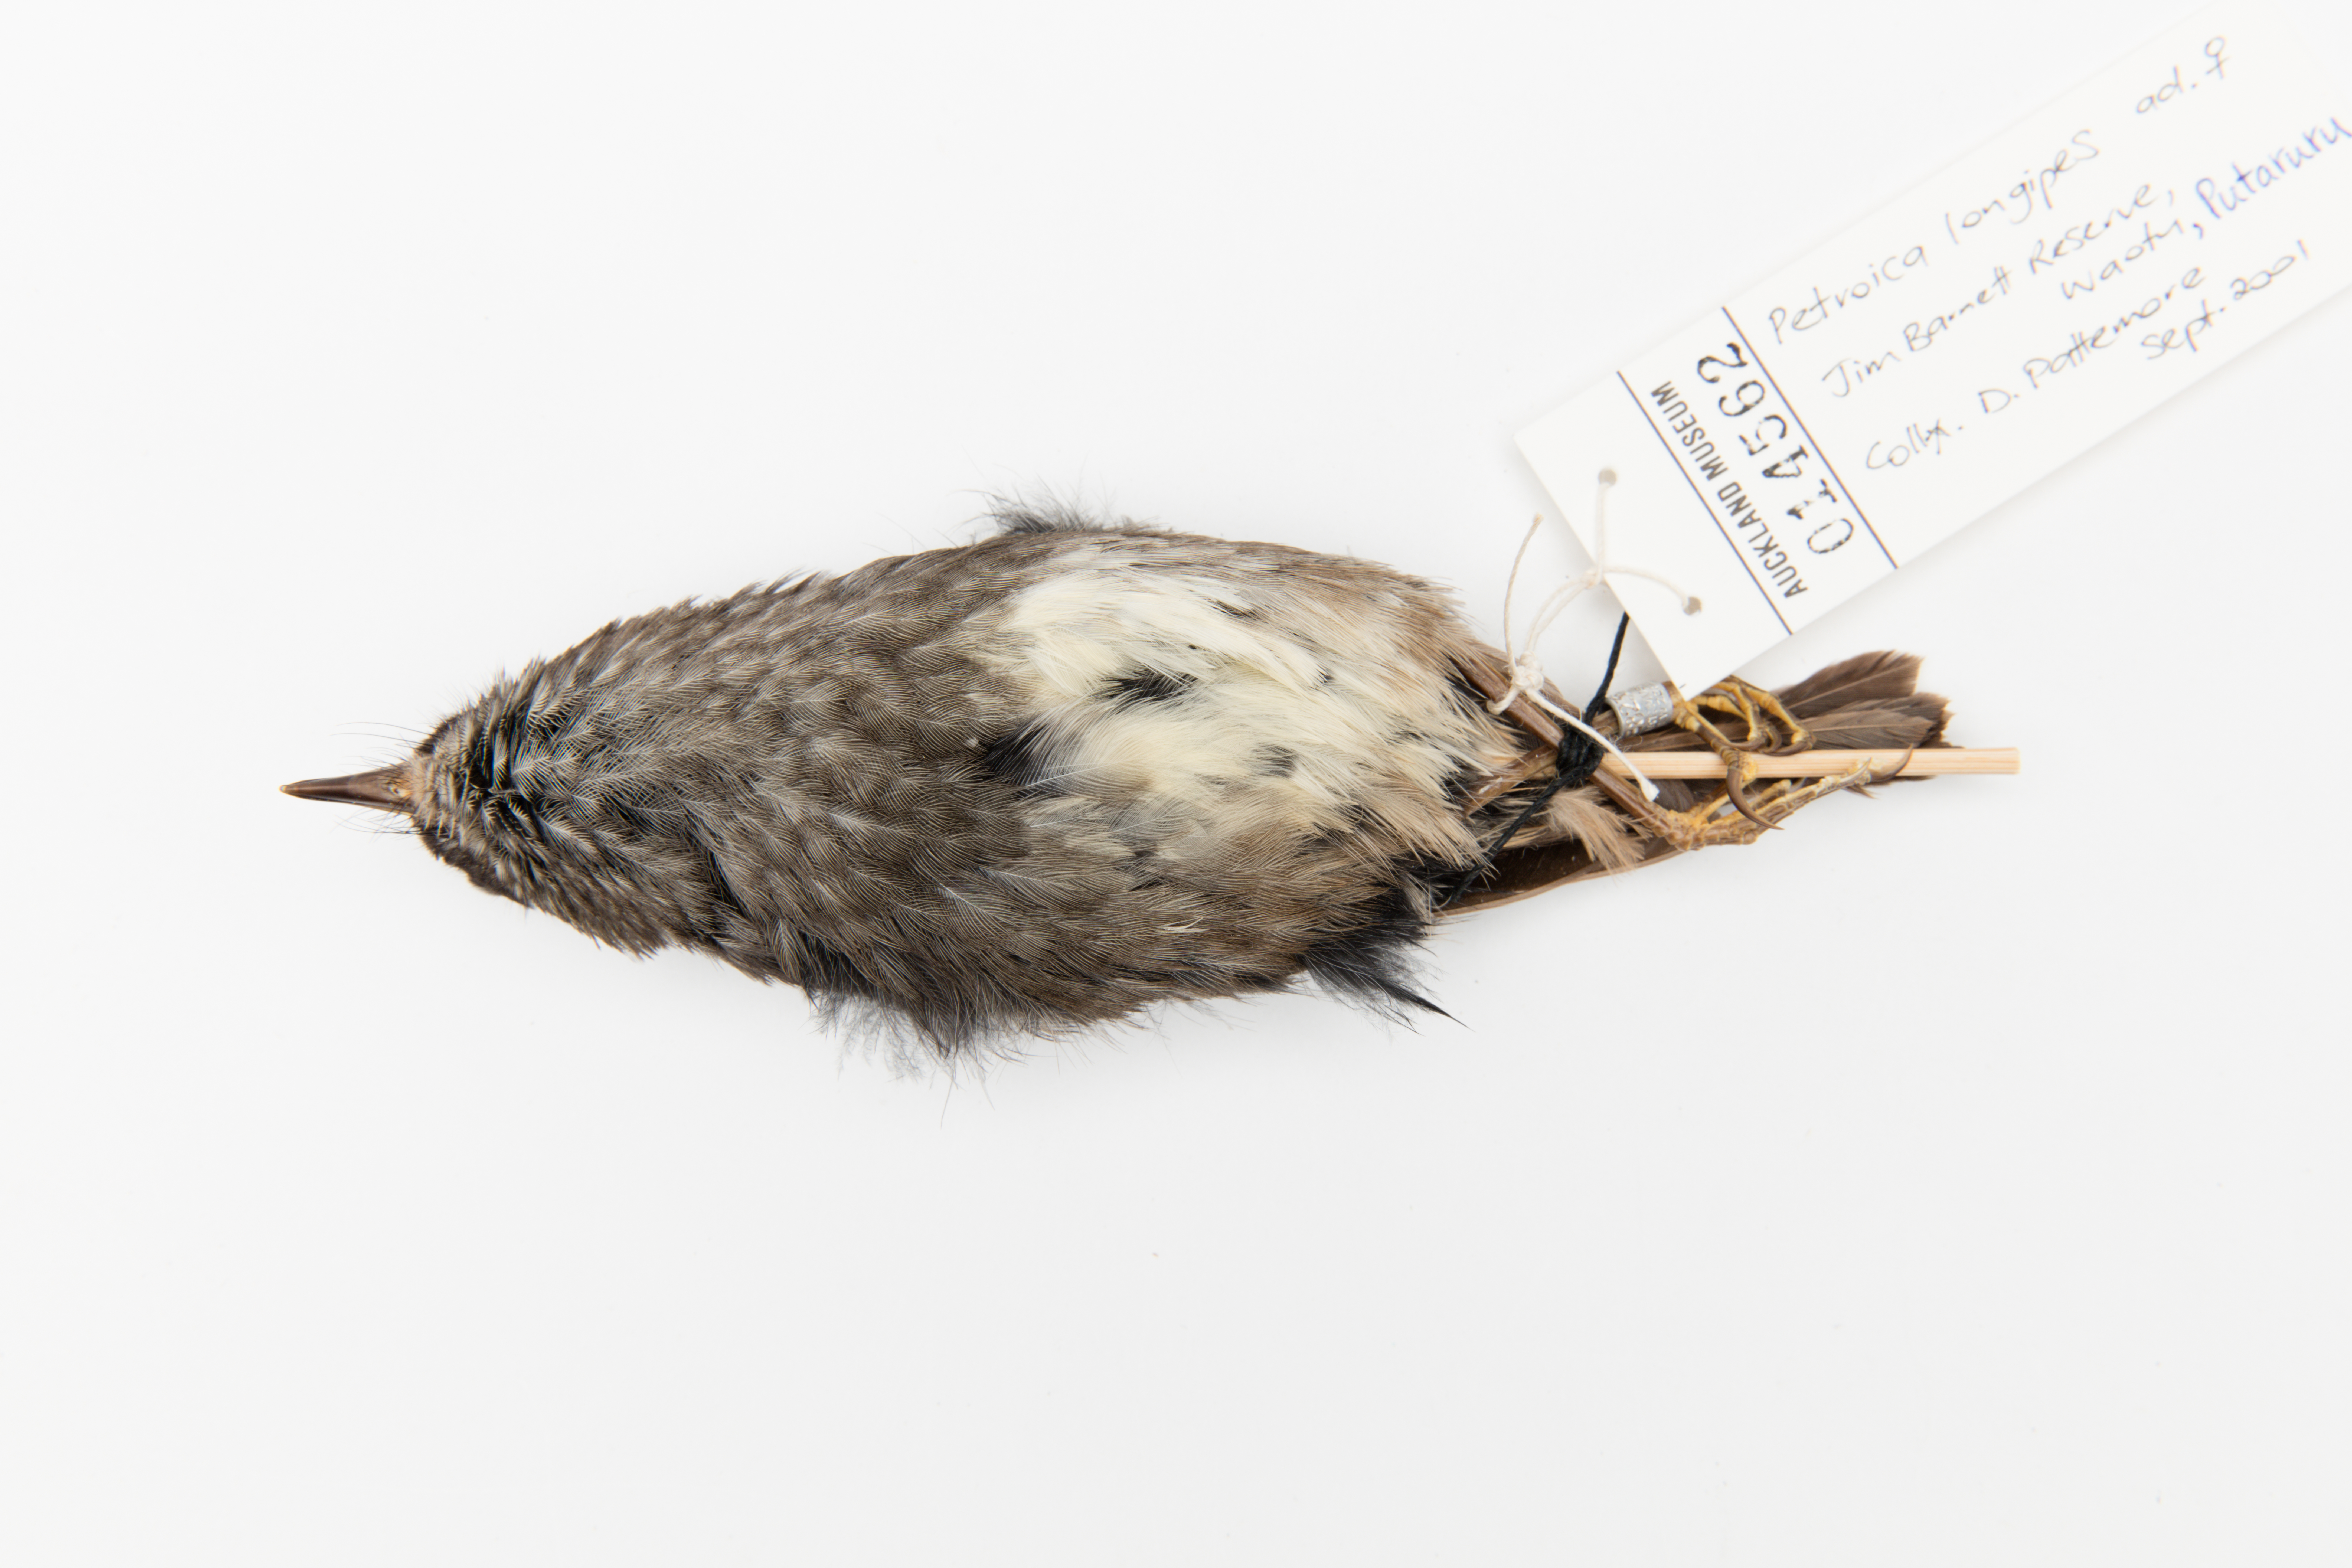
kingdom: Animalia
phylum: Chordata
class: Aves
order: Passeriformes
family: Petroicidae
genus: Petroica
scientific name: Petroica australis
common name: New zealand robin
